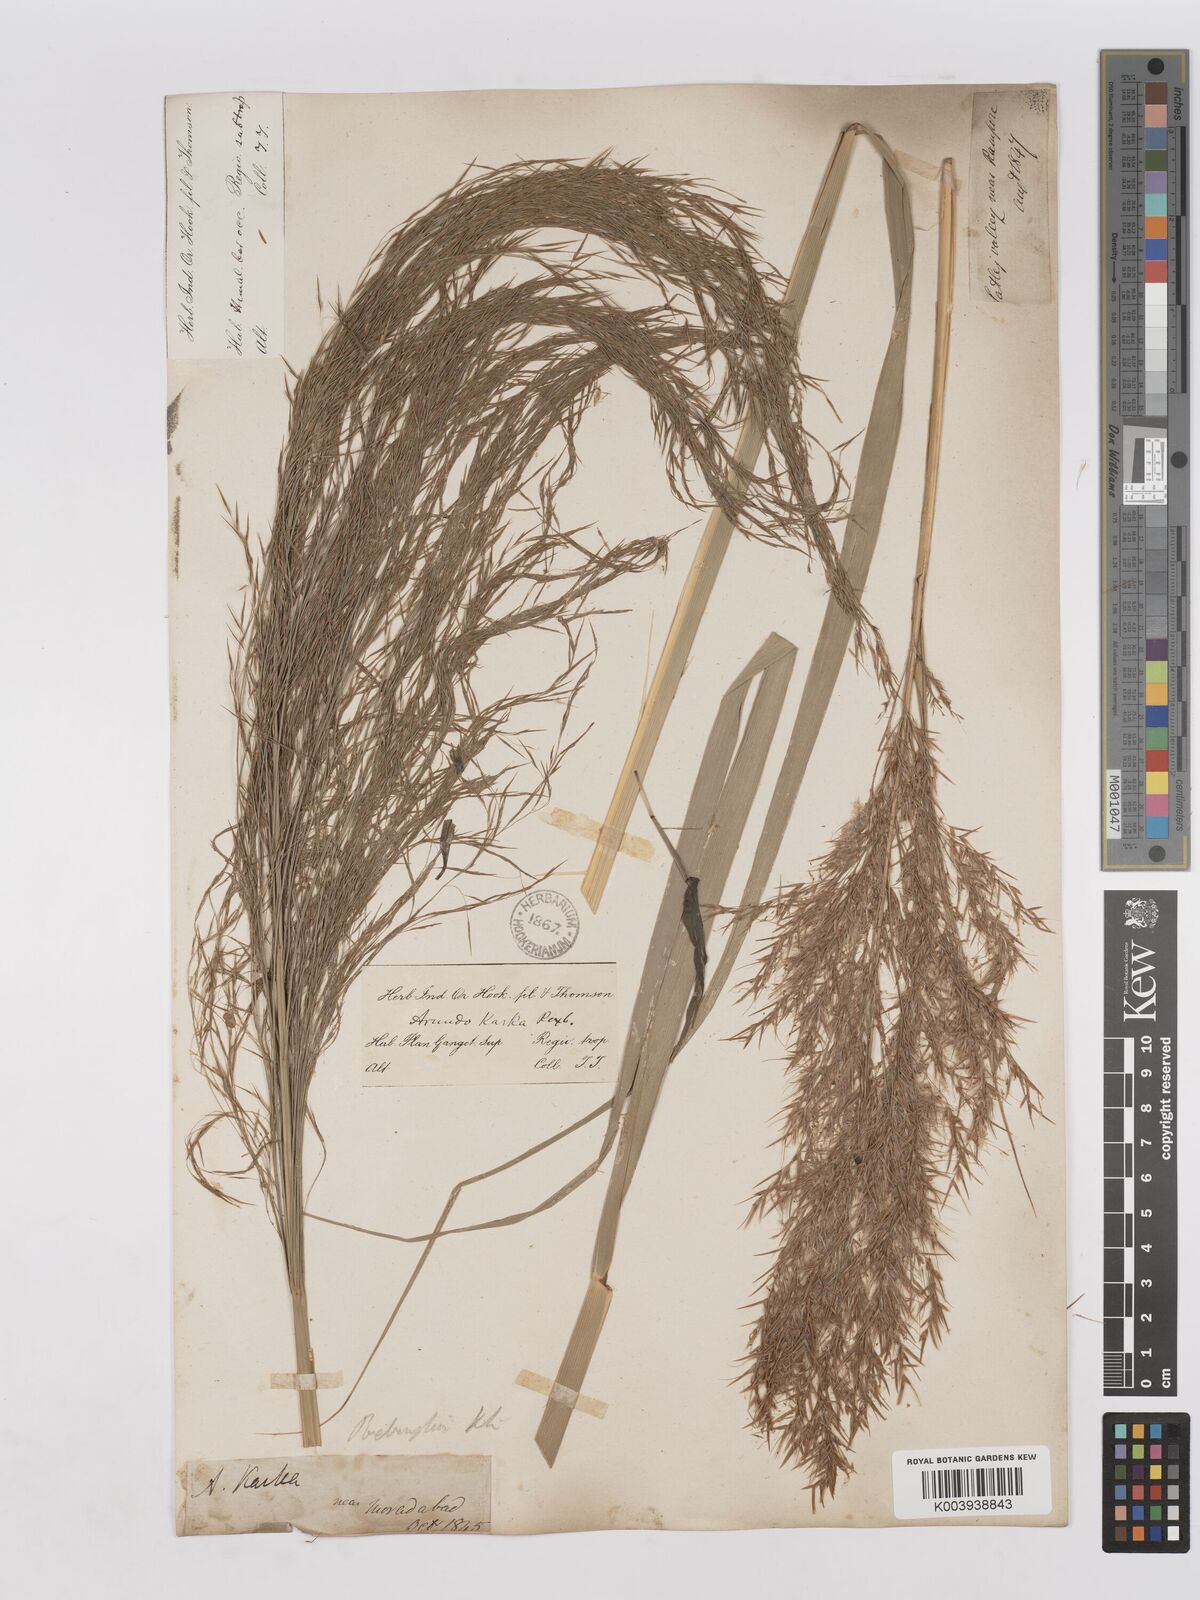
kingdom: Plantae
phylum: Tracheophyta
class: Liliopsida
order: Poales
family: Poaceae
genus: Phragmites
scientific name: Phragmites karka
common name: Tropical reed
